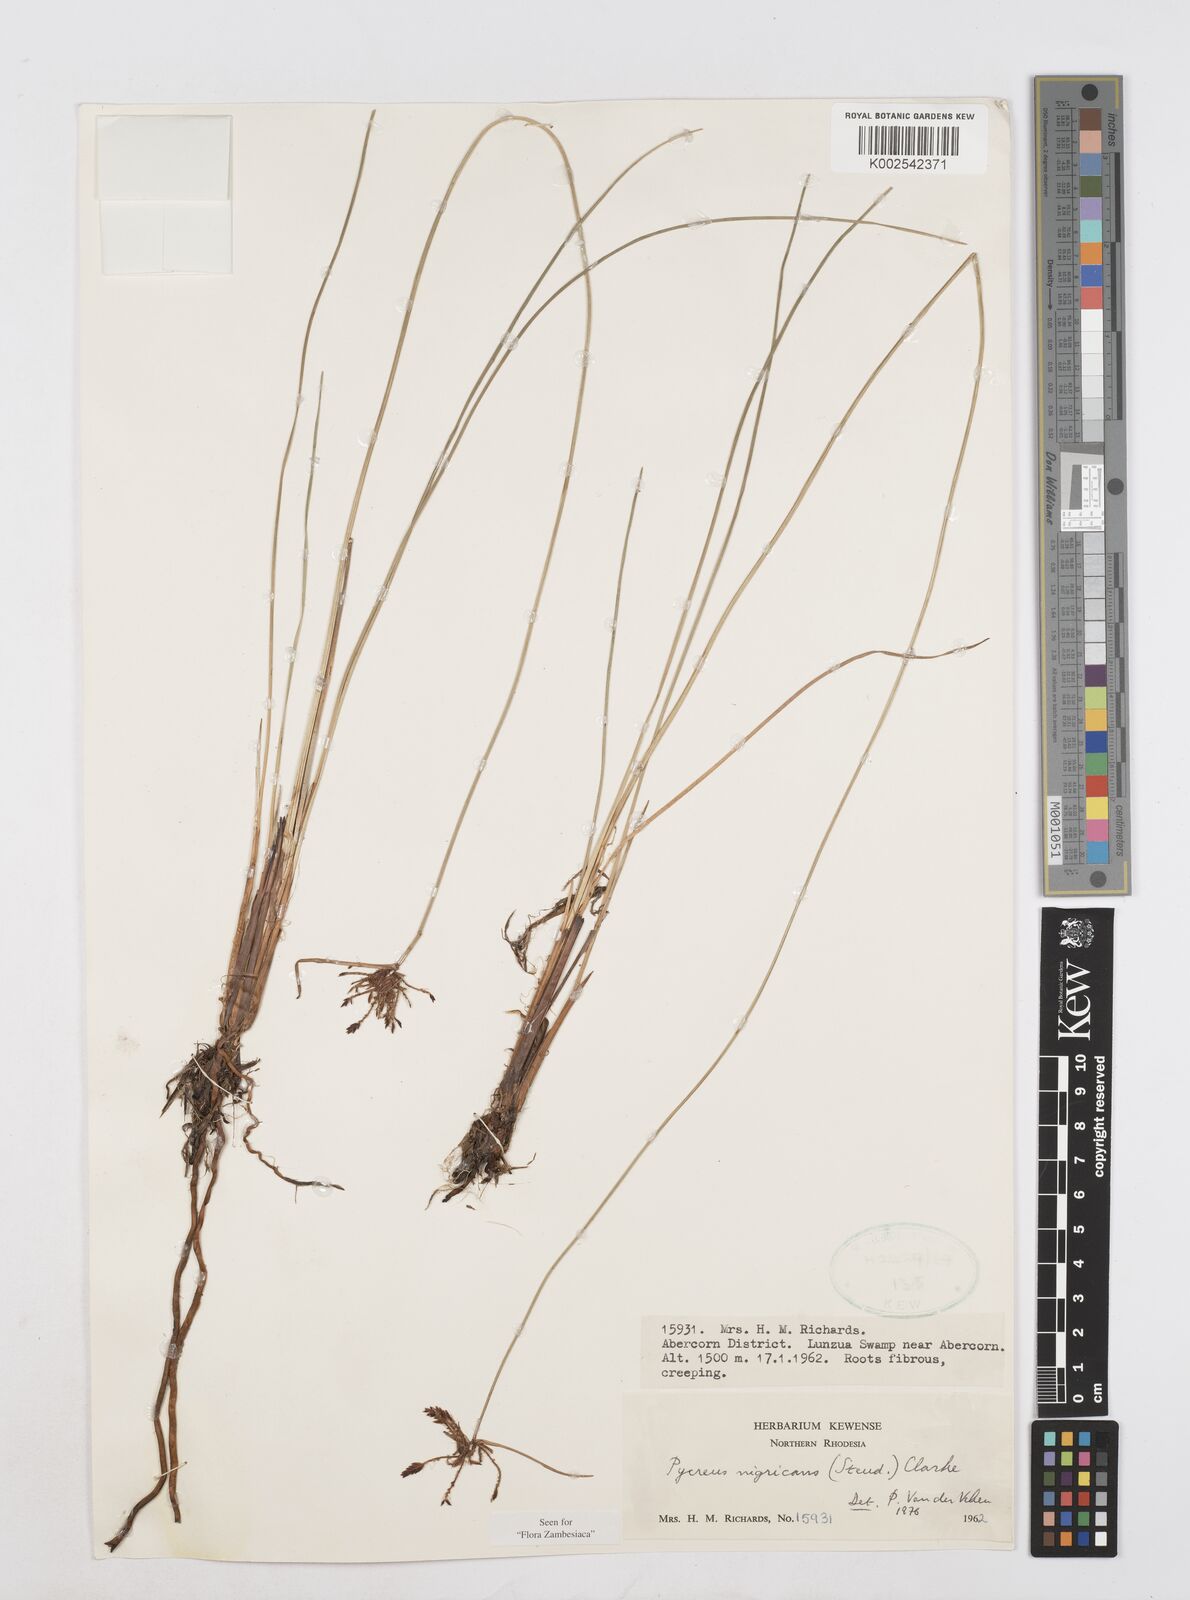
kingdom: Plantae
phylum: Tracheophyta
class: Liliopsida
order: Poales
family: Cyperaceae
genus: Cyperus
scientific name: Cyperus nigricans
